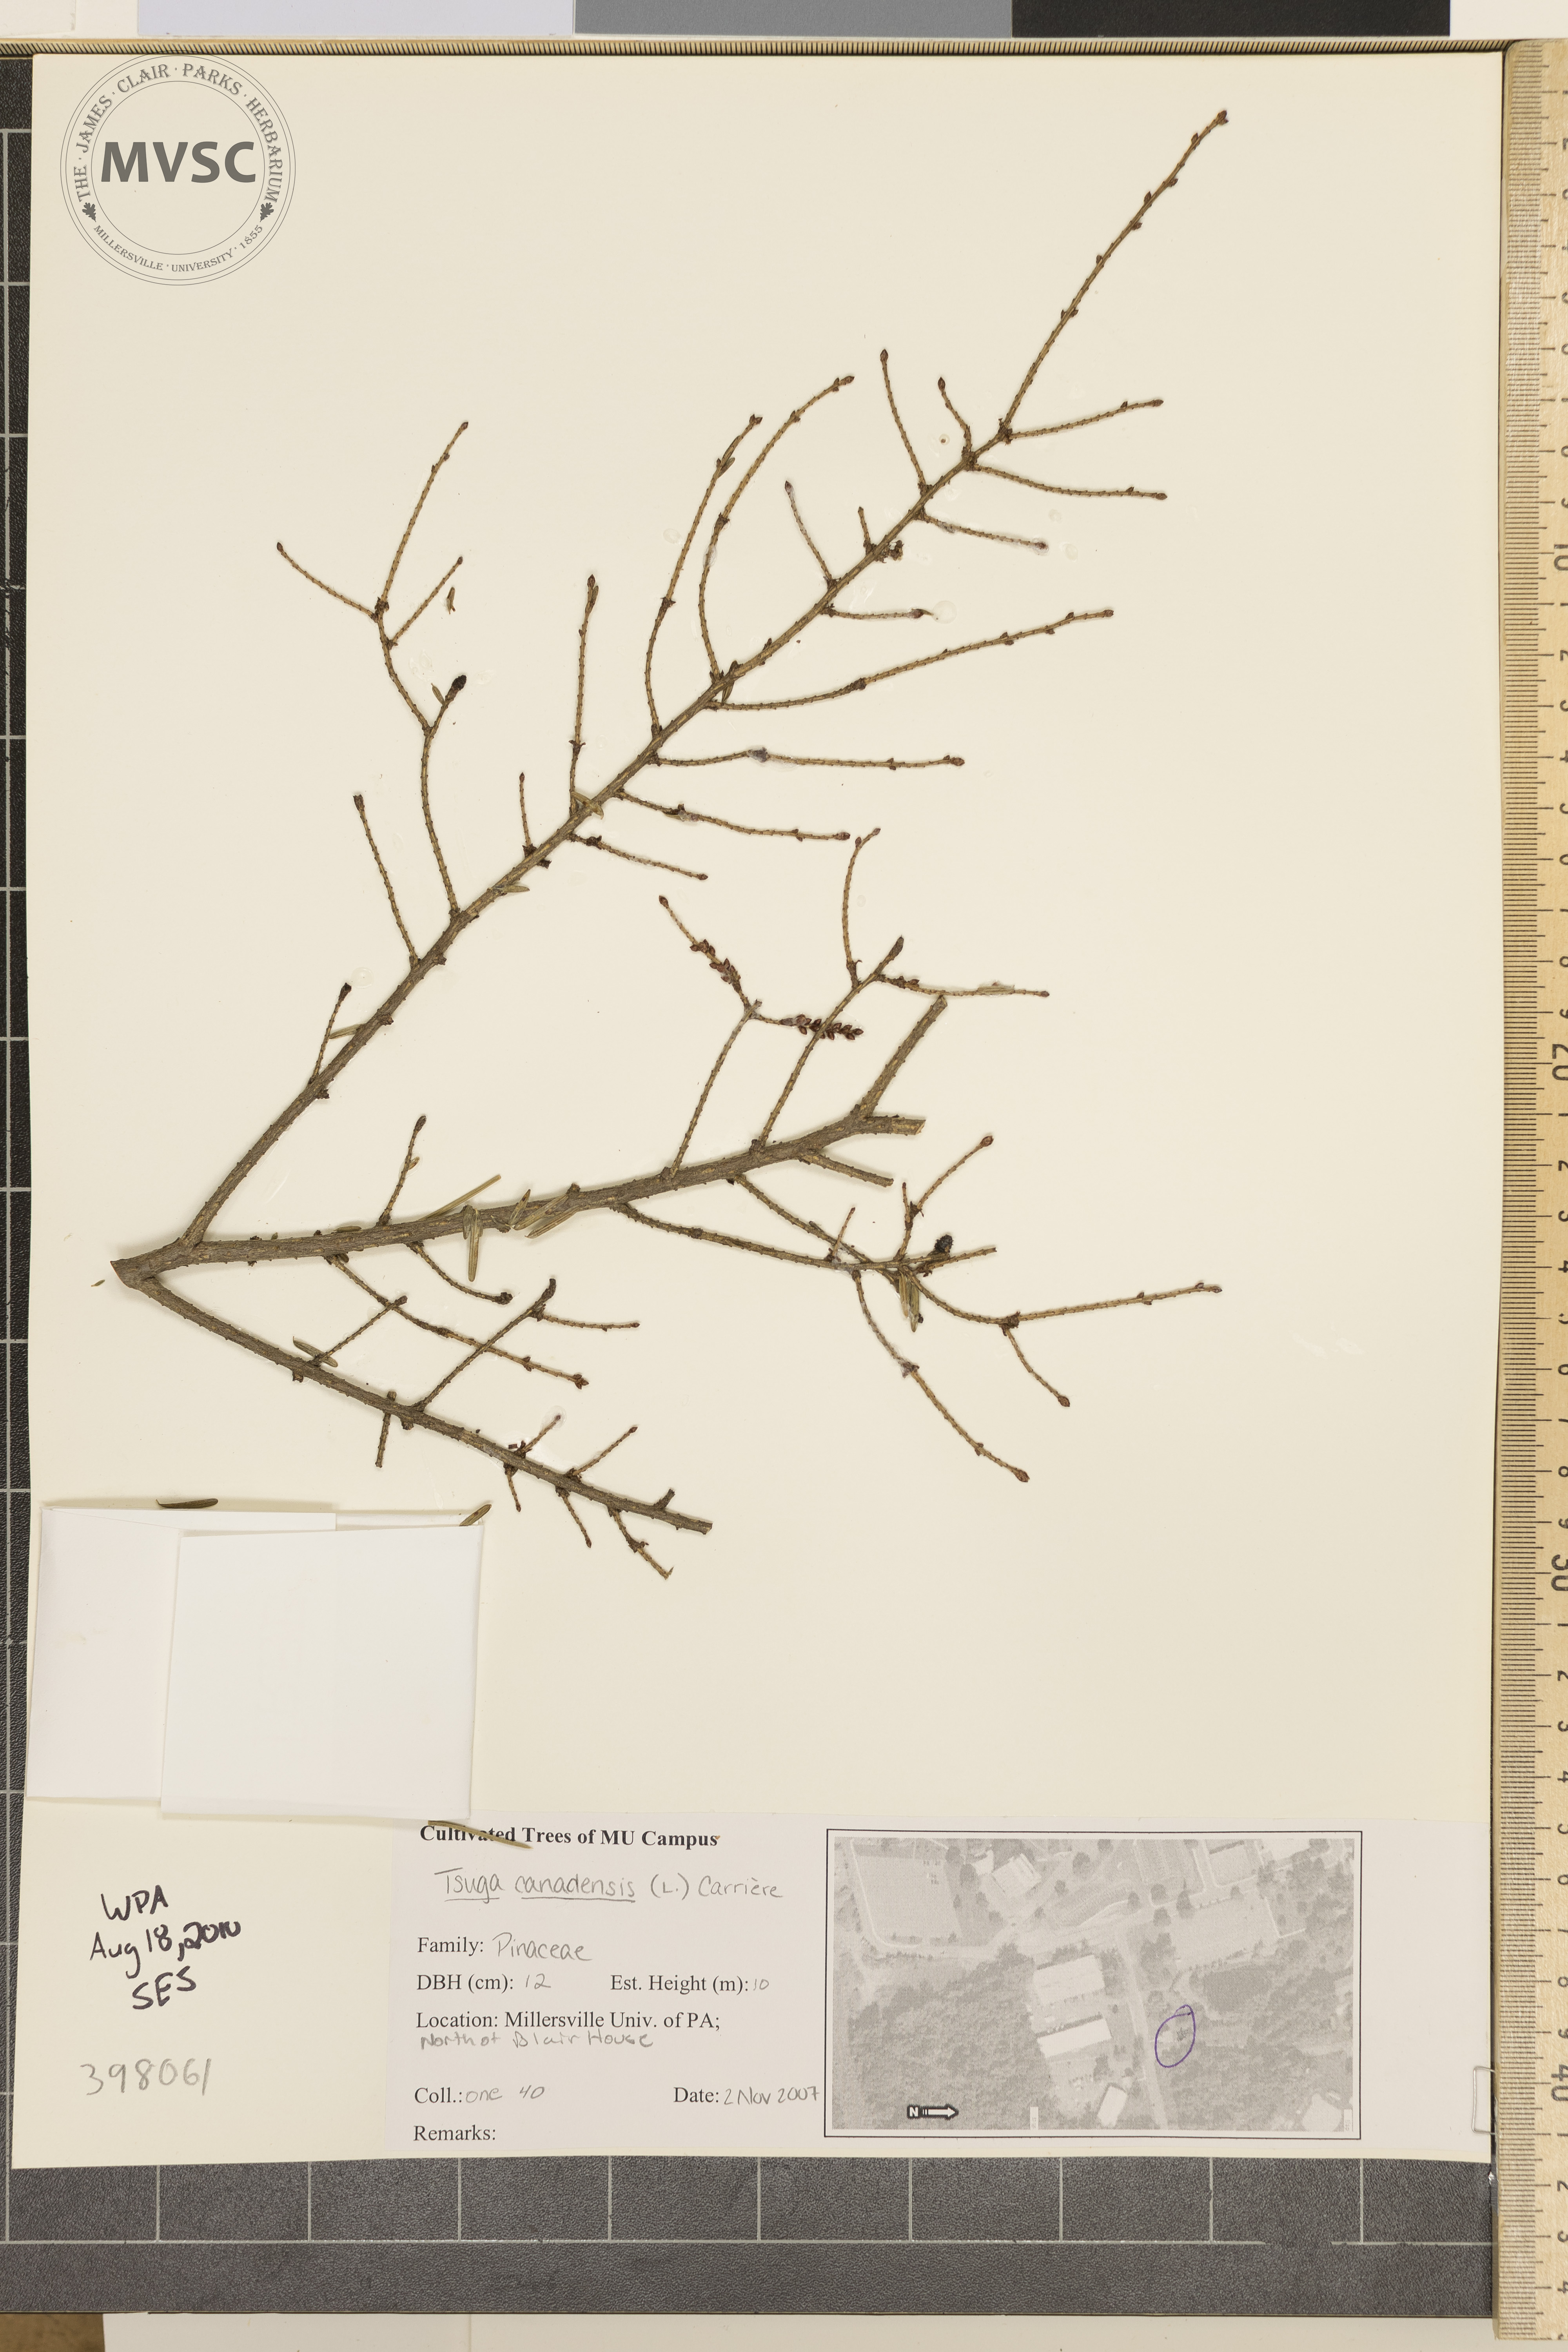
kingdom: Plantae
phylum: Tracheophyta
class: Pinopsida
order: Pinales
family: Pinaceae
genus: Tsuga
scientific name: Tsuga canadensis
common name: Canada hemlock
